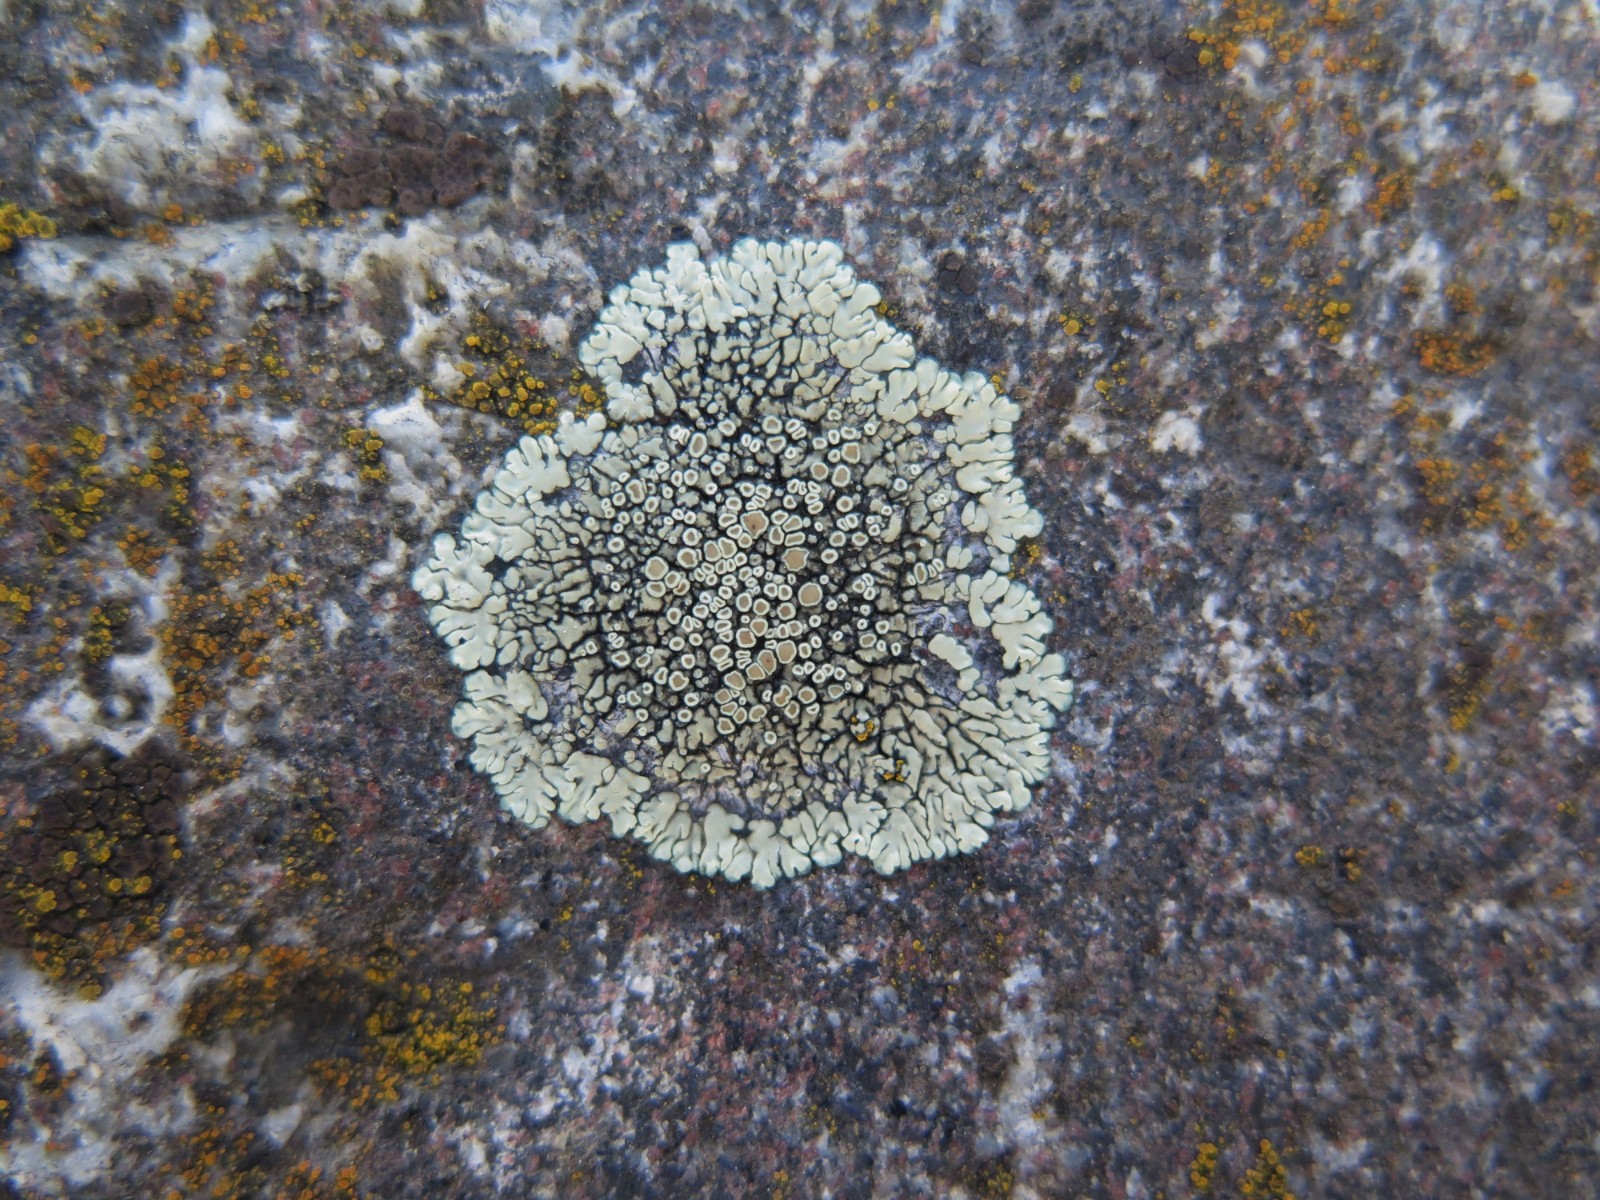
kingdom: Fungi
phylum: Ascomycota
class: Lecanoromycetes
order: Lecanorales
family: Lecanoraceae
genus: Protoparmeliopsis
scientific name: Protoparmeliopsis muralis
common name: randfliget kantskivelav
